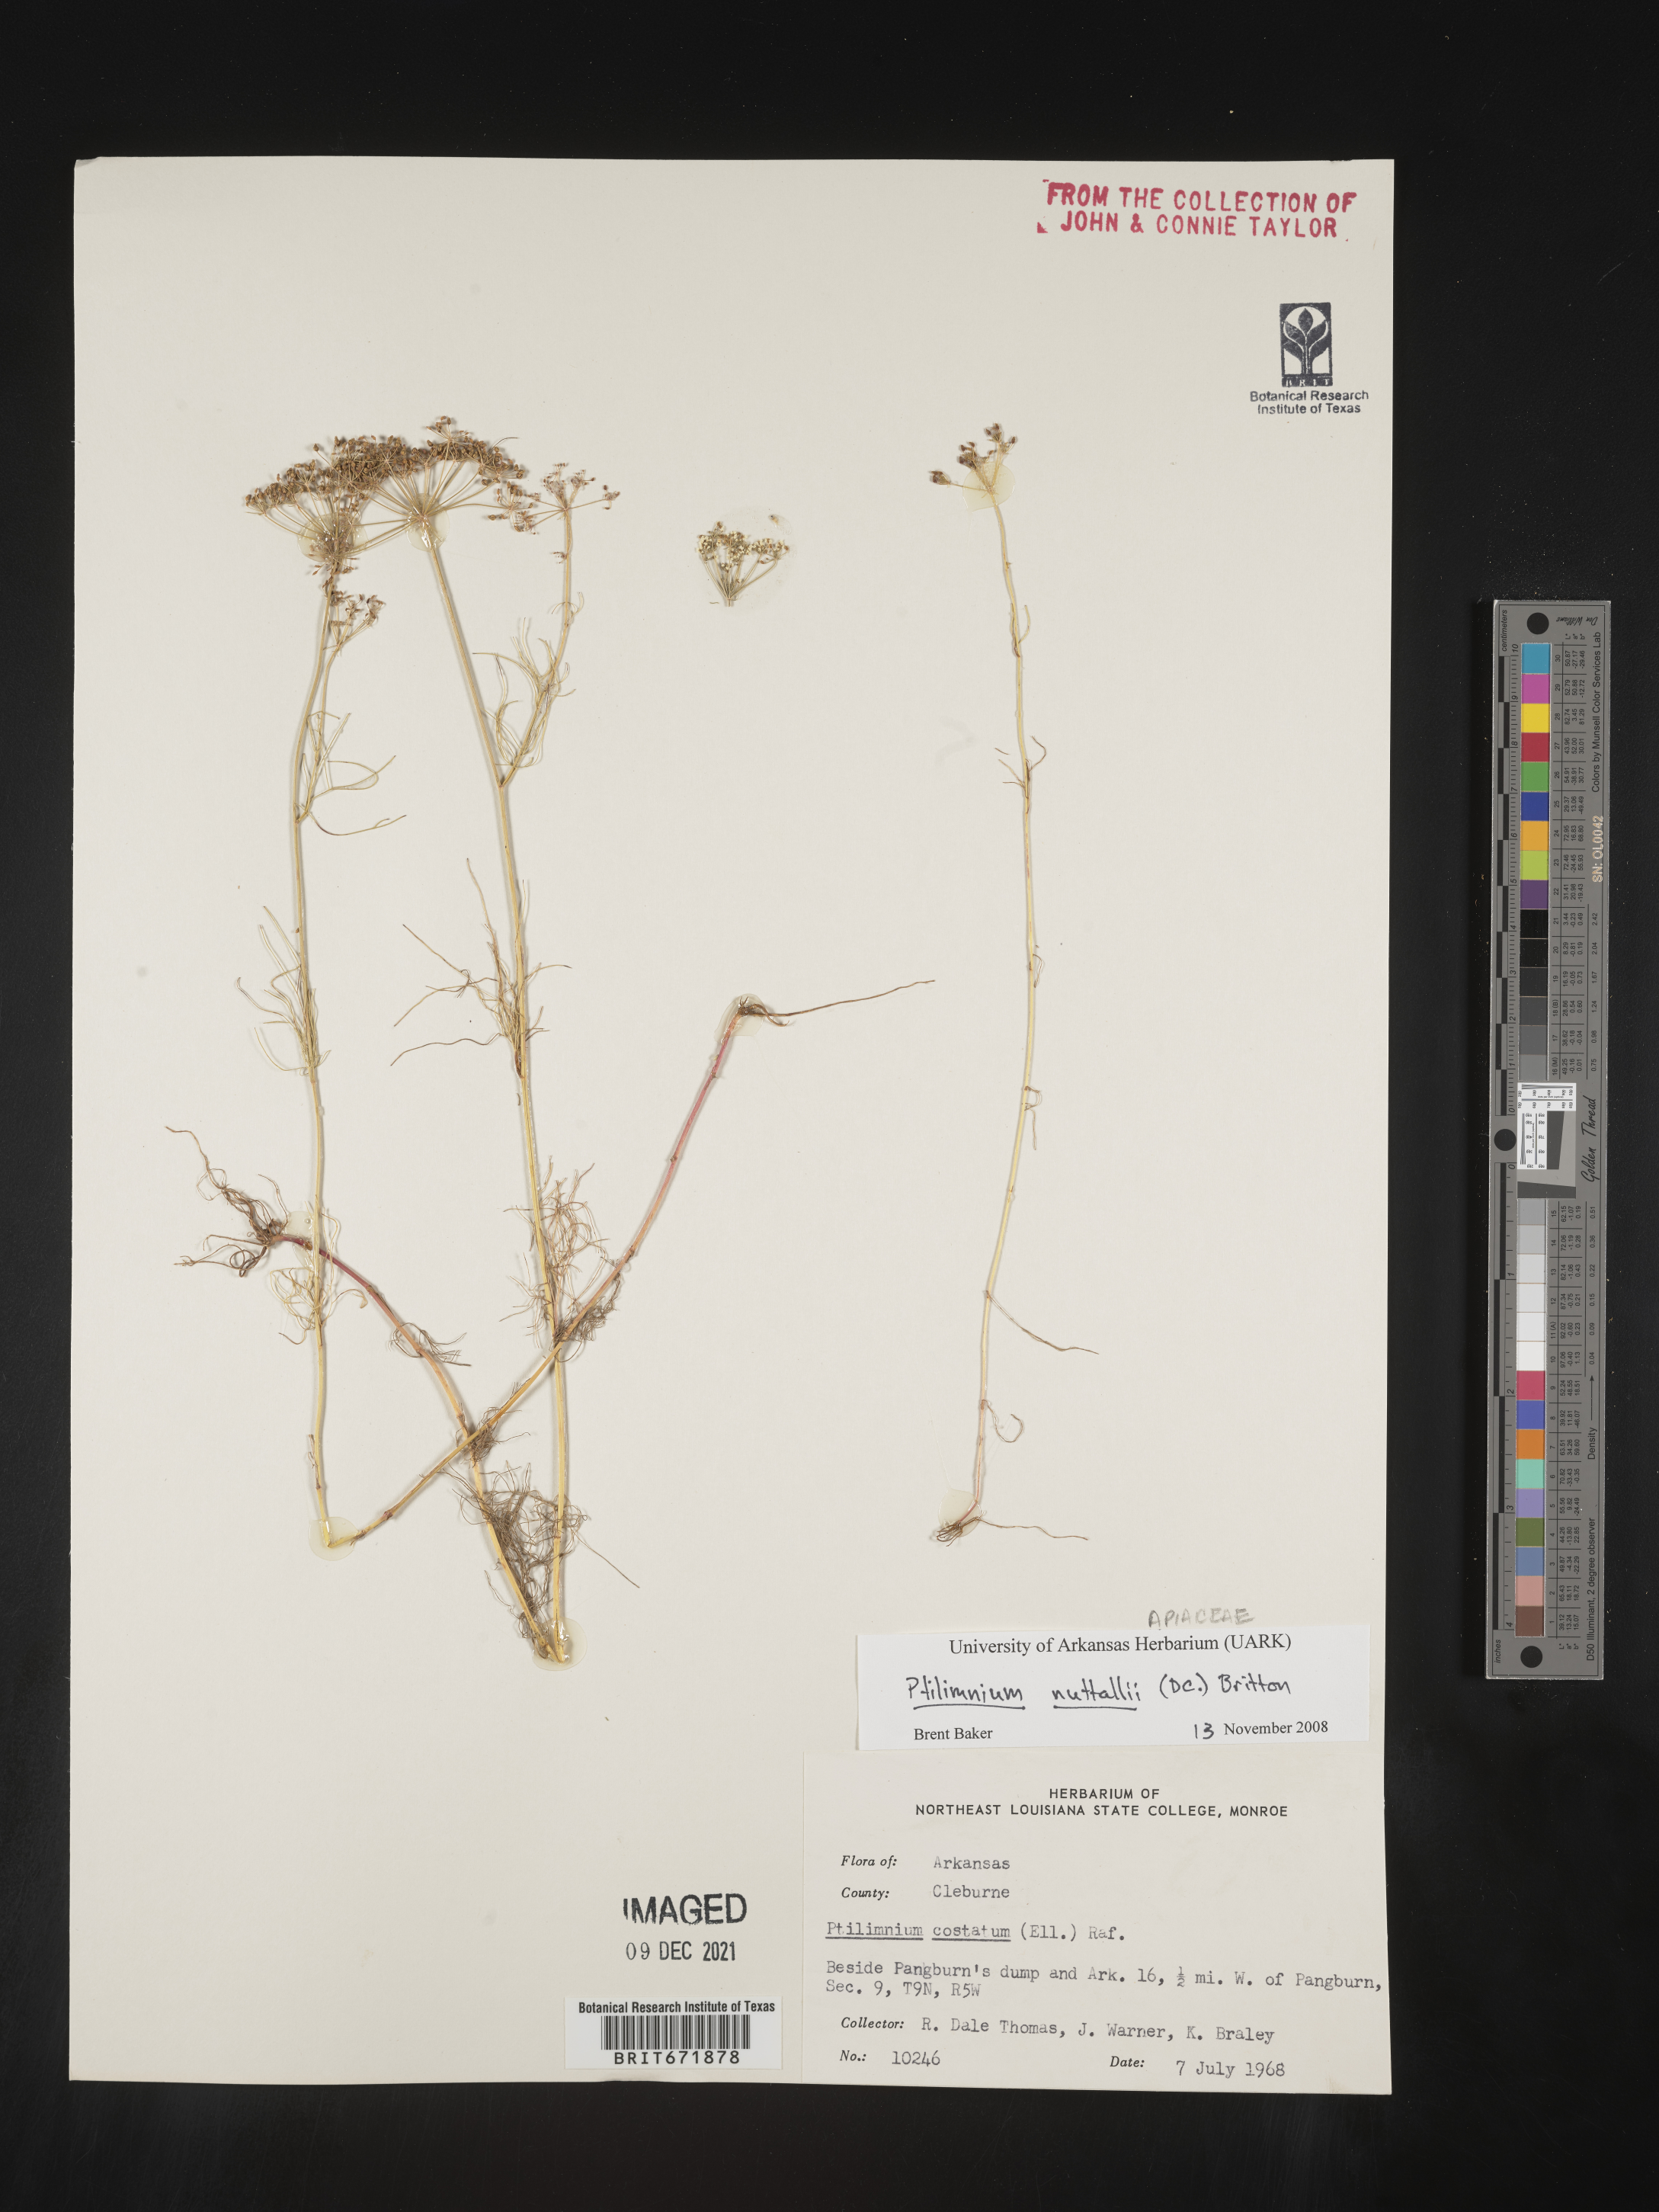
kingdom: Plantae
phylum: Tracheophyta
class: Magnoliopsida
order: Apiales
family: Apiaceae
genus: Ptilimnium
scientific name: Ptilimnium nuttallii
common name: Ozark bishop's-weed
